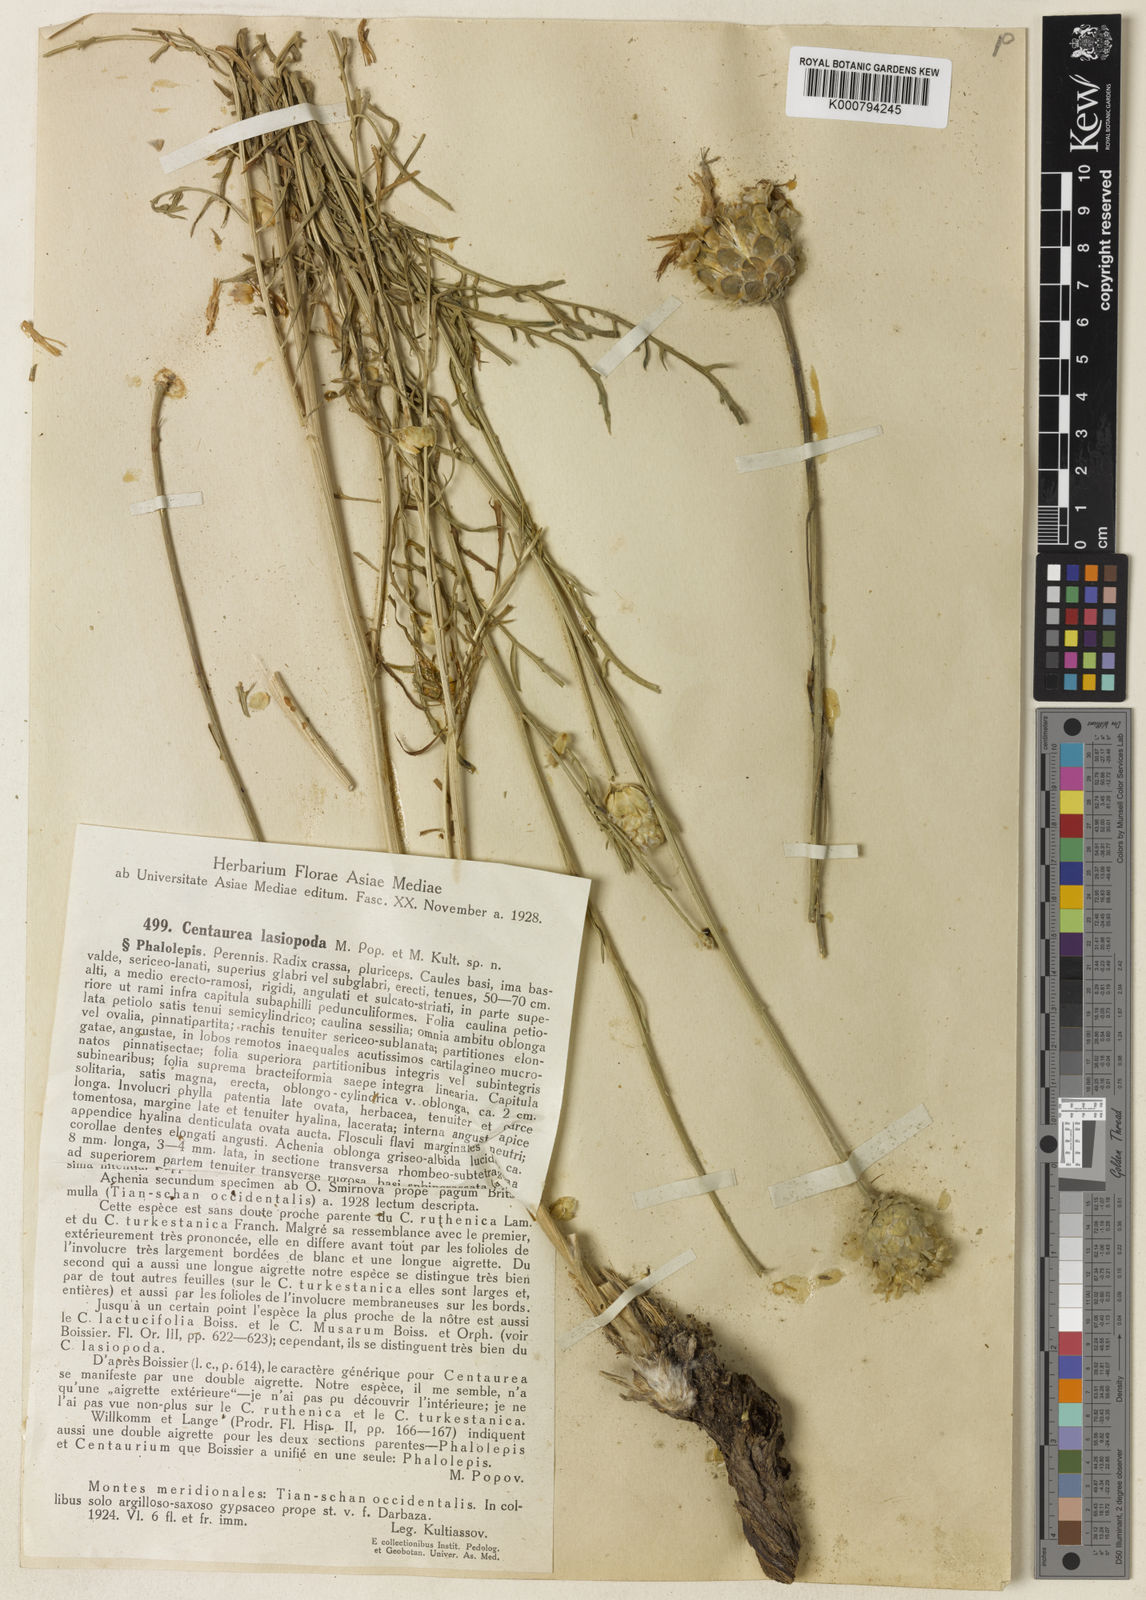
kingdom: Plantae
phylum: Tracheophyta
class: Magnoliopsida
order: Asterales
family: Asteraceae
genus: Rhaponticoides
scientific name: Rhaponticoides lasiopoda
